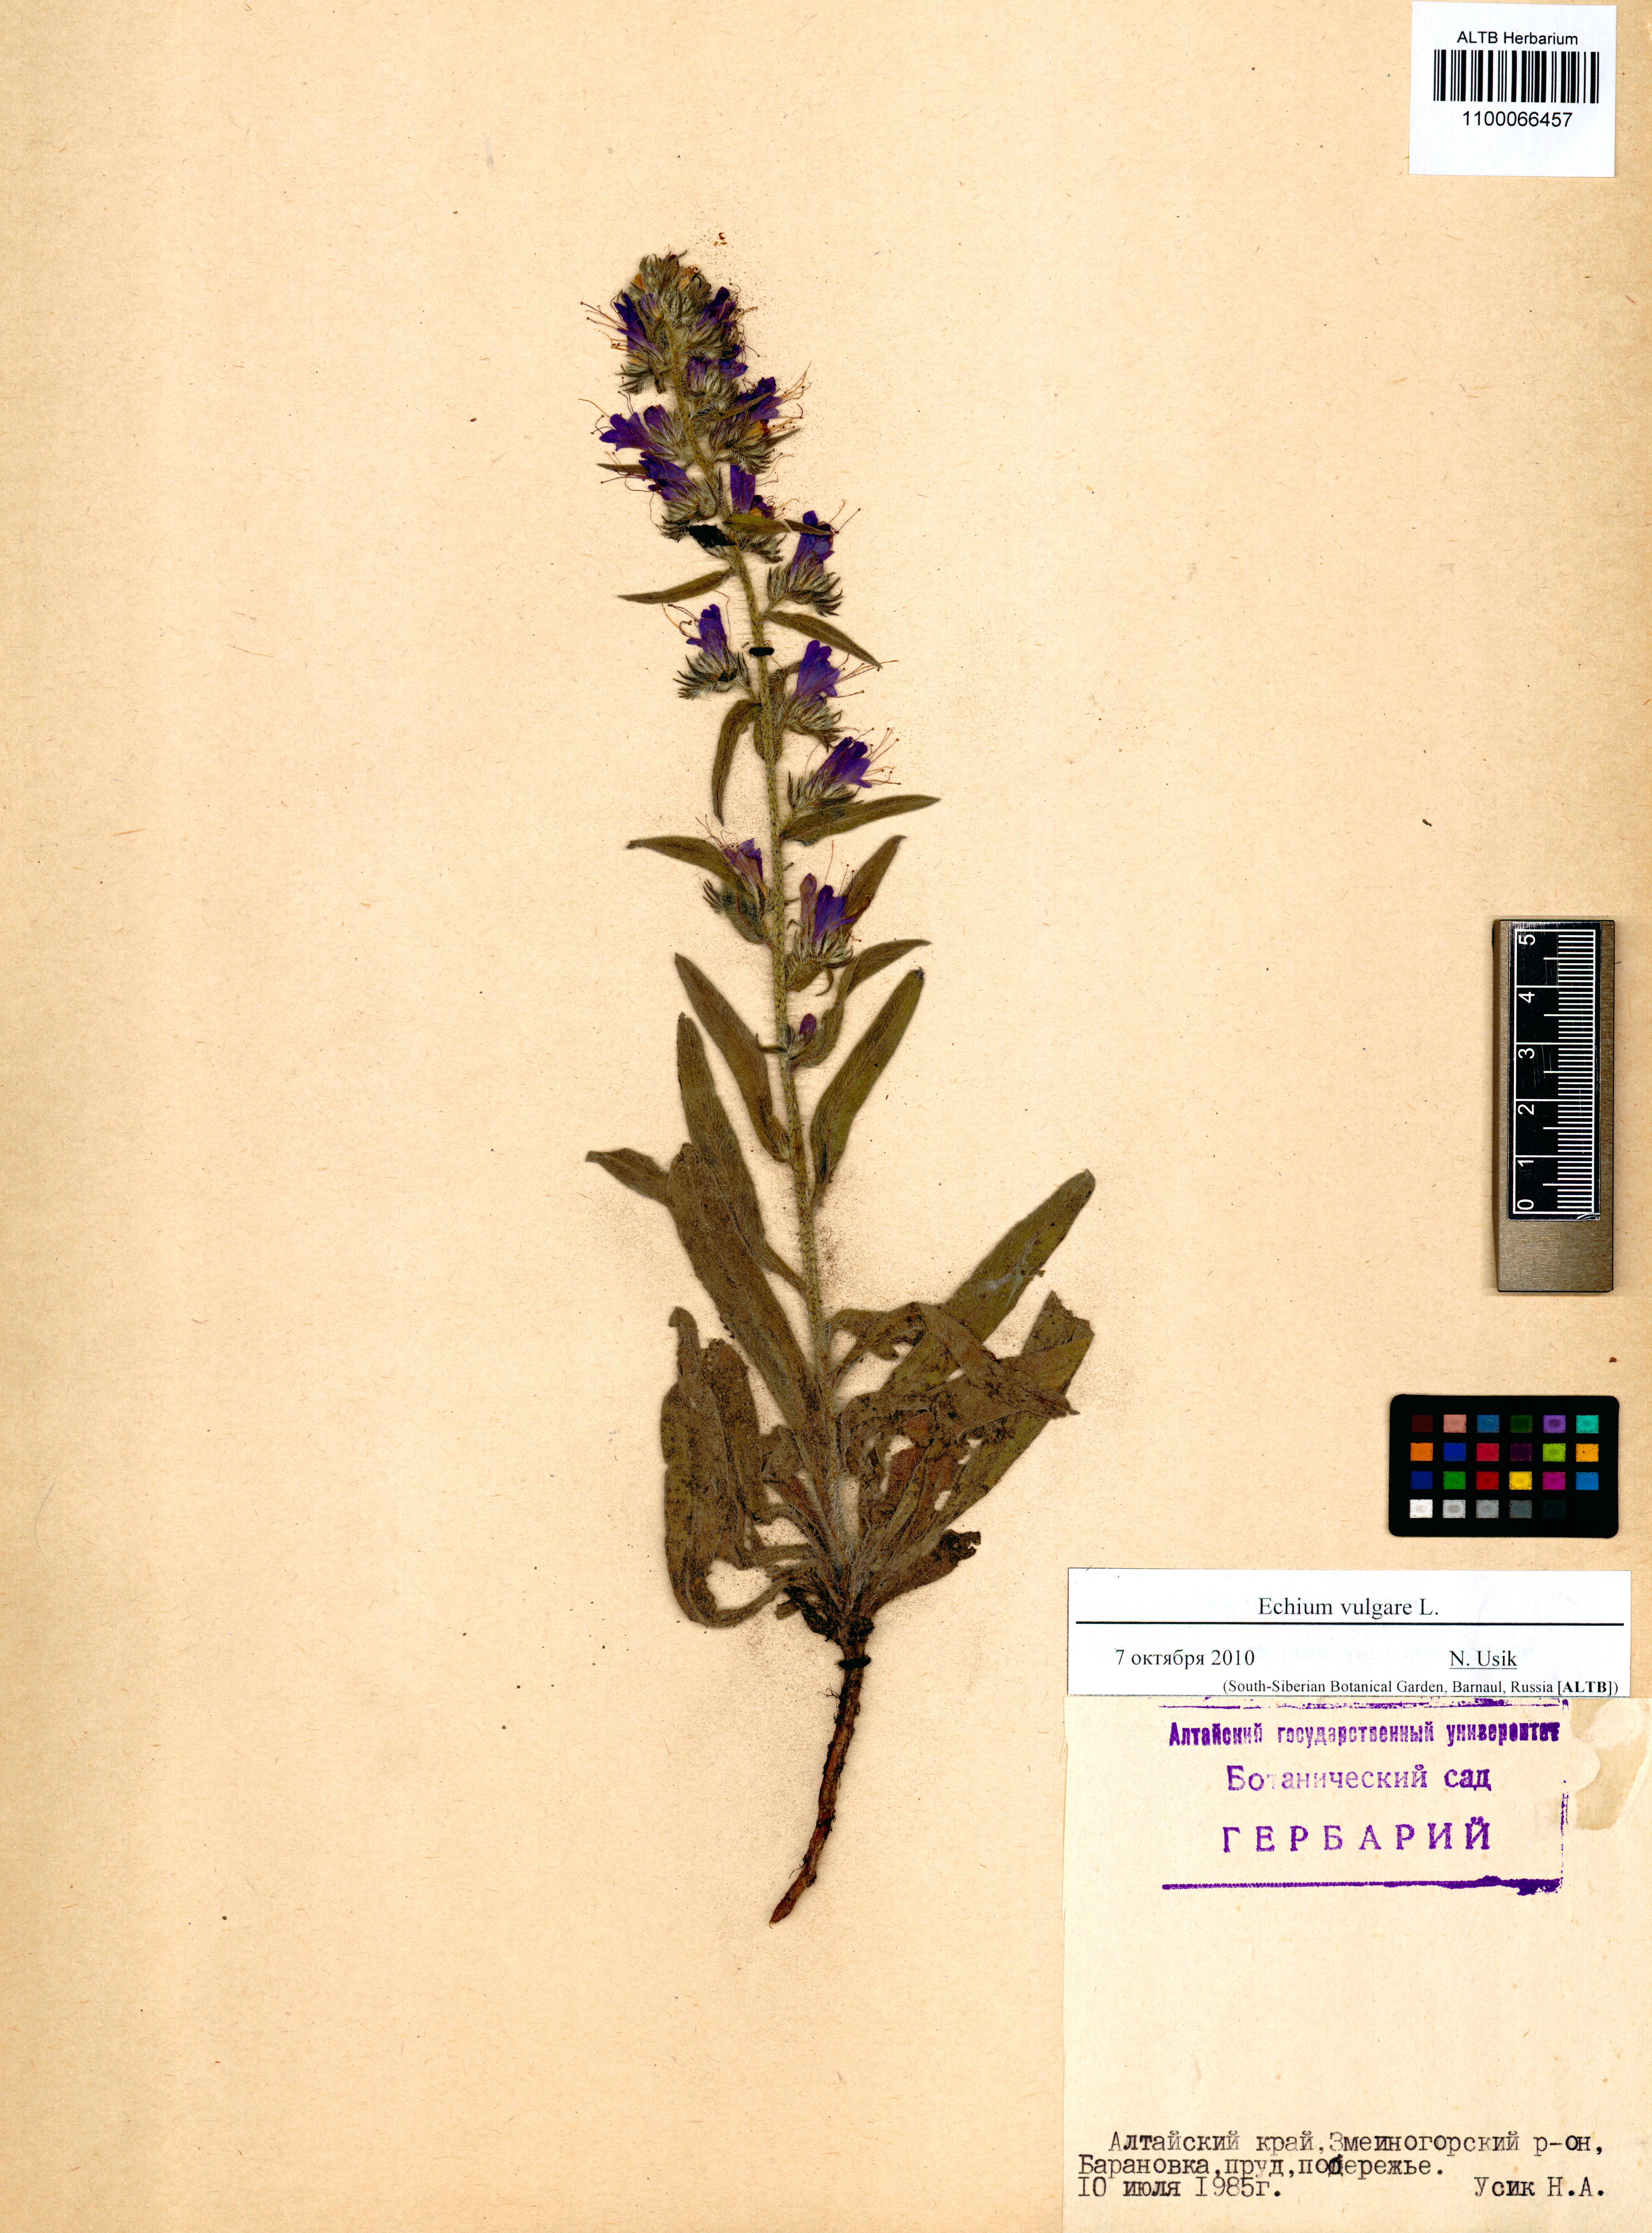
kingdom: Plantae
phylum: Tracheophyta
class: Magnoliopsida
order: Boraginales
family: Boraginaceae
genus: Echium
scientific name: Echium vulgare
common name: Common viper's bugloss
